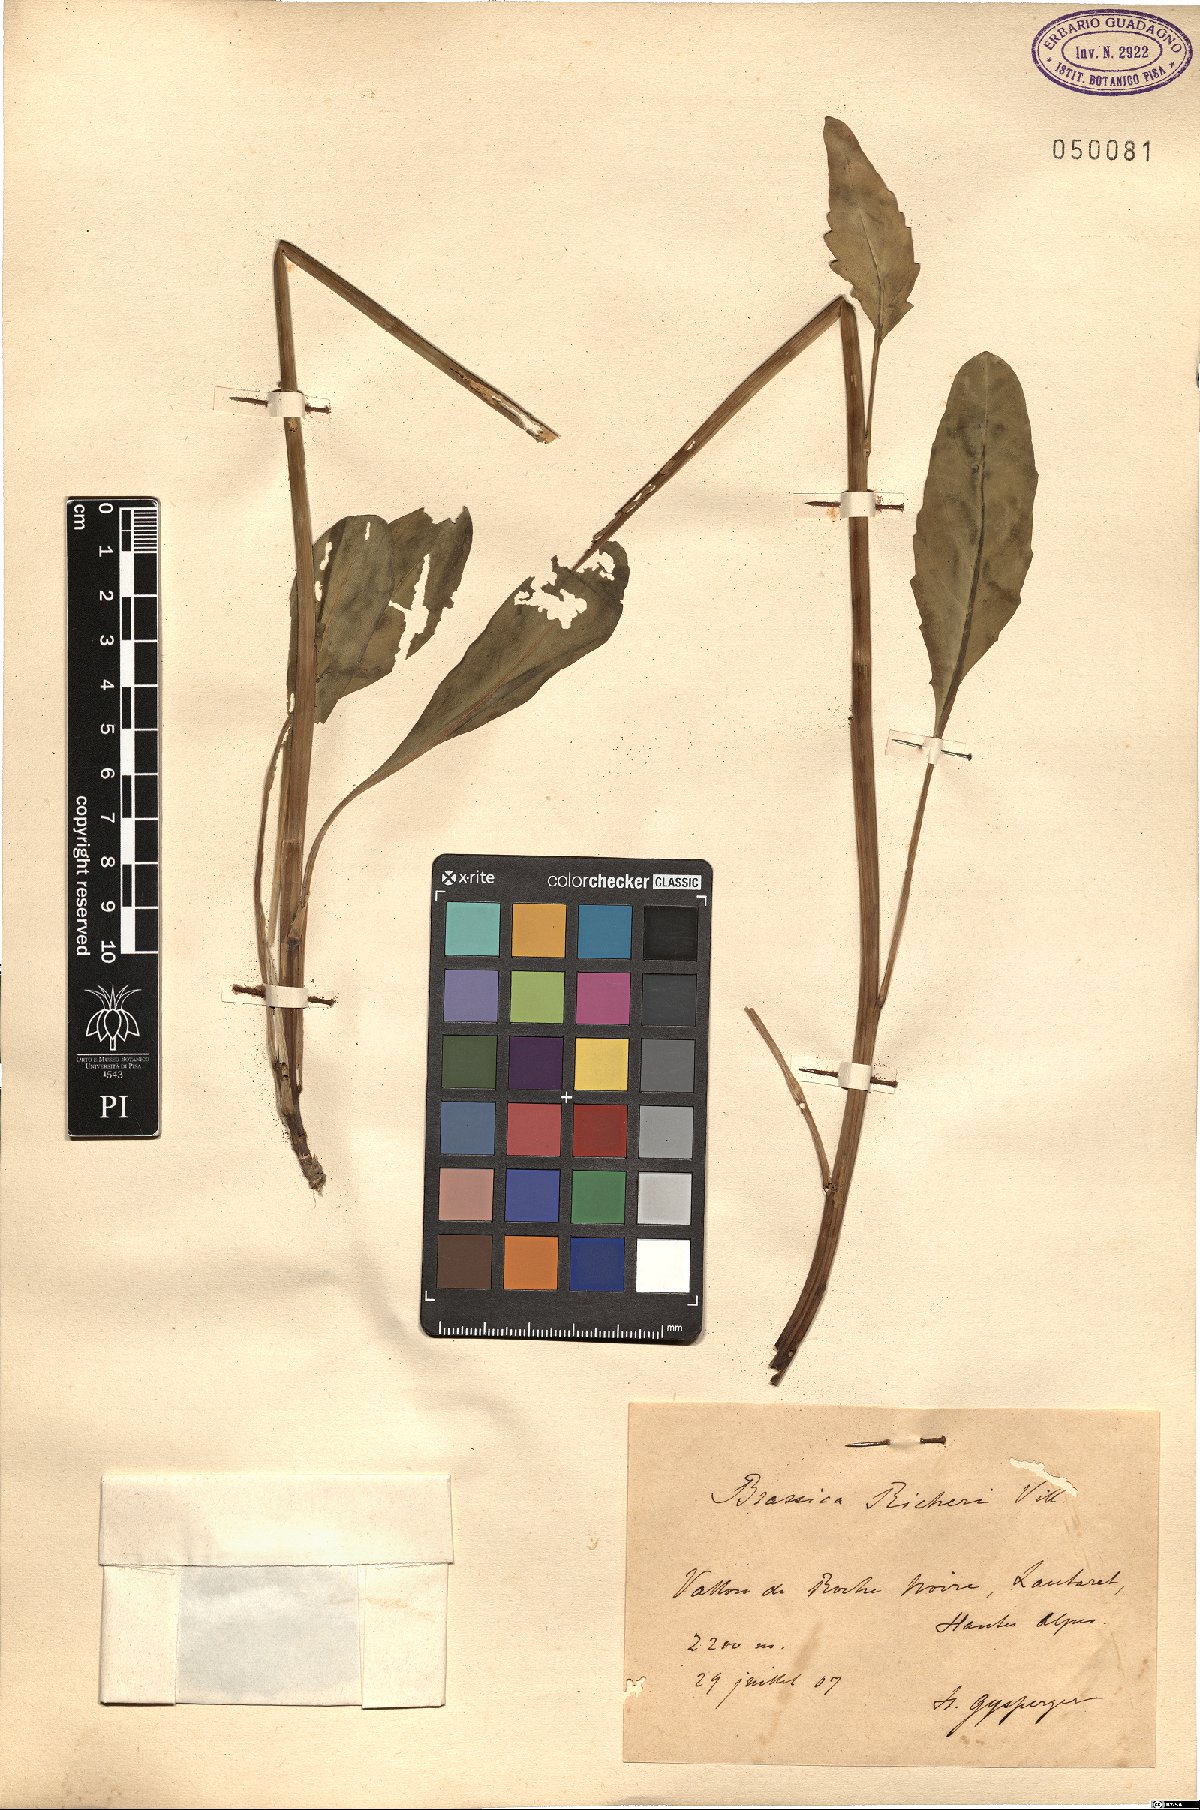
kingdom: Plantae
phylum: Tracheophyta
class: Magnoliopsida
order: Brassicales
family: Brassicaceae
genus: Coincya
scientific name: Coincya richeri
